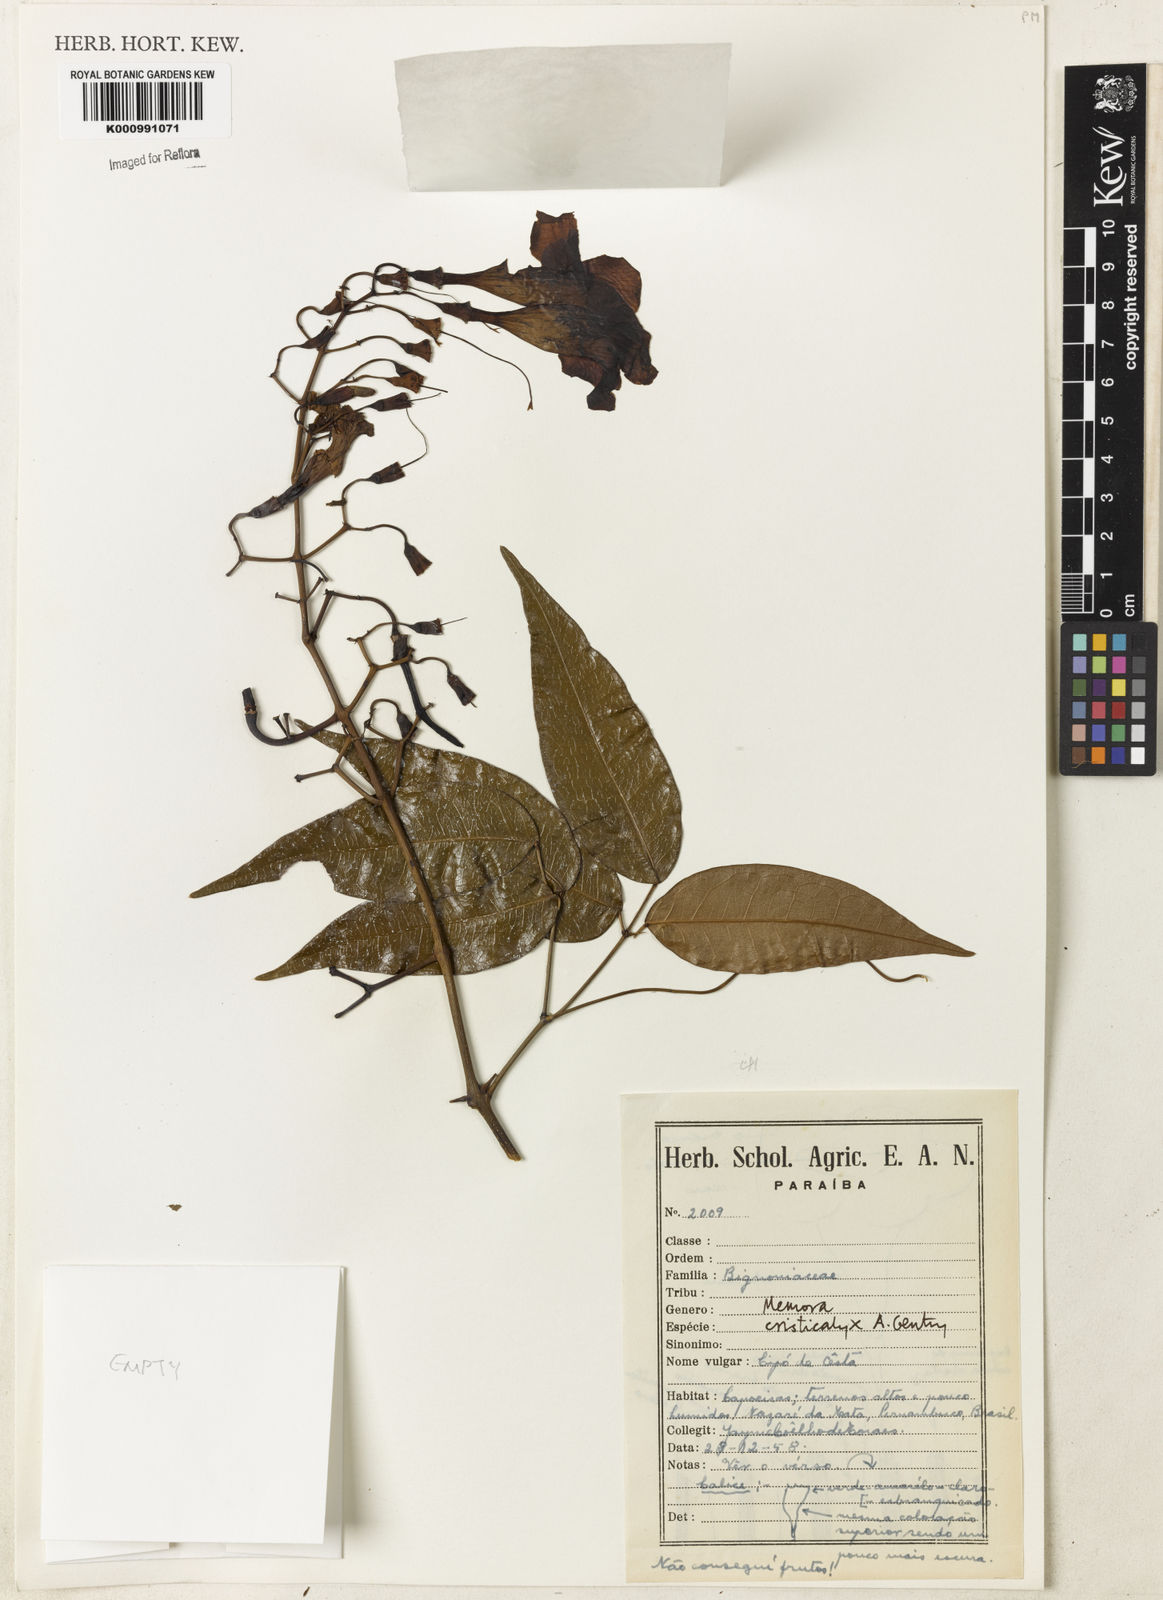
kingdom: Plantae
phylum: Tracheophyta
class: Magnoliopsida
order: Lamiales
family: Bignoniaceae
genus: Adenocalymma
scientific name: Adenocalymma cristicalyx
